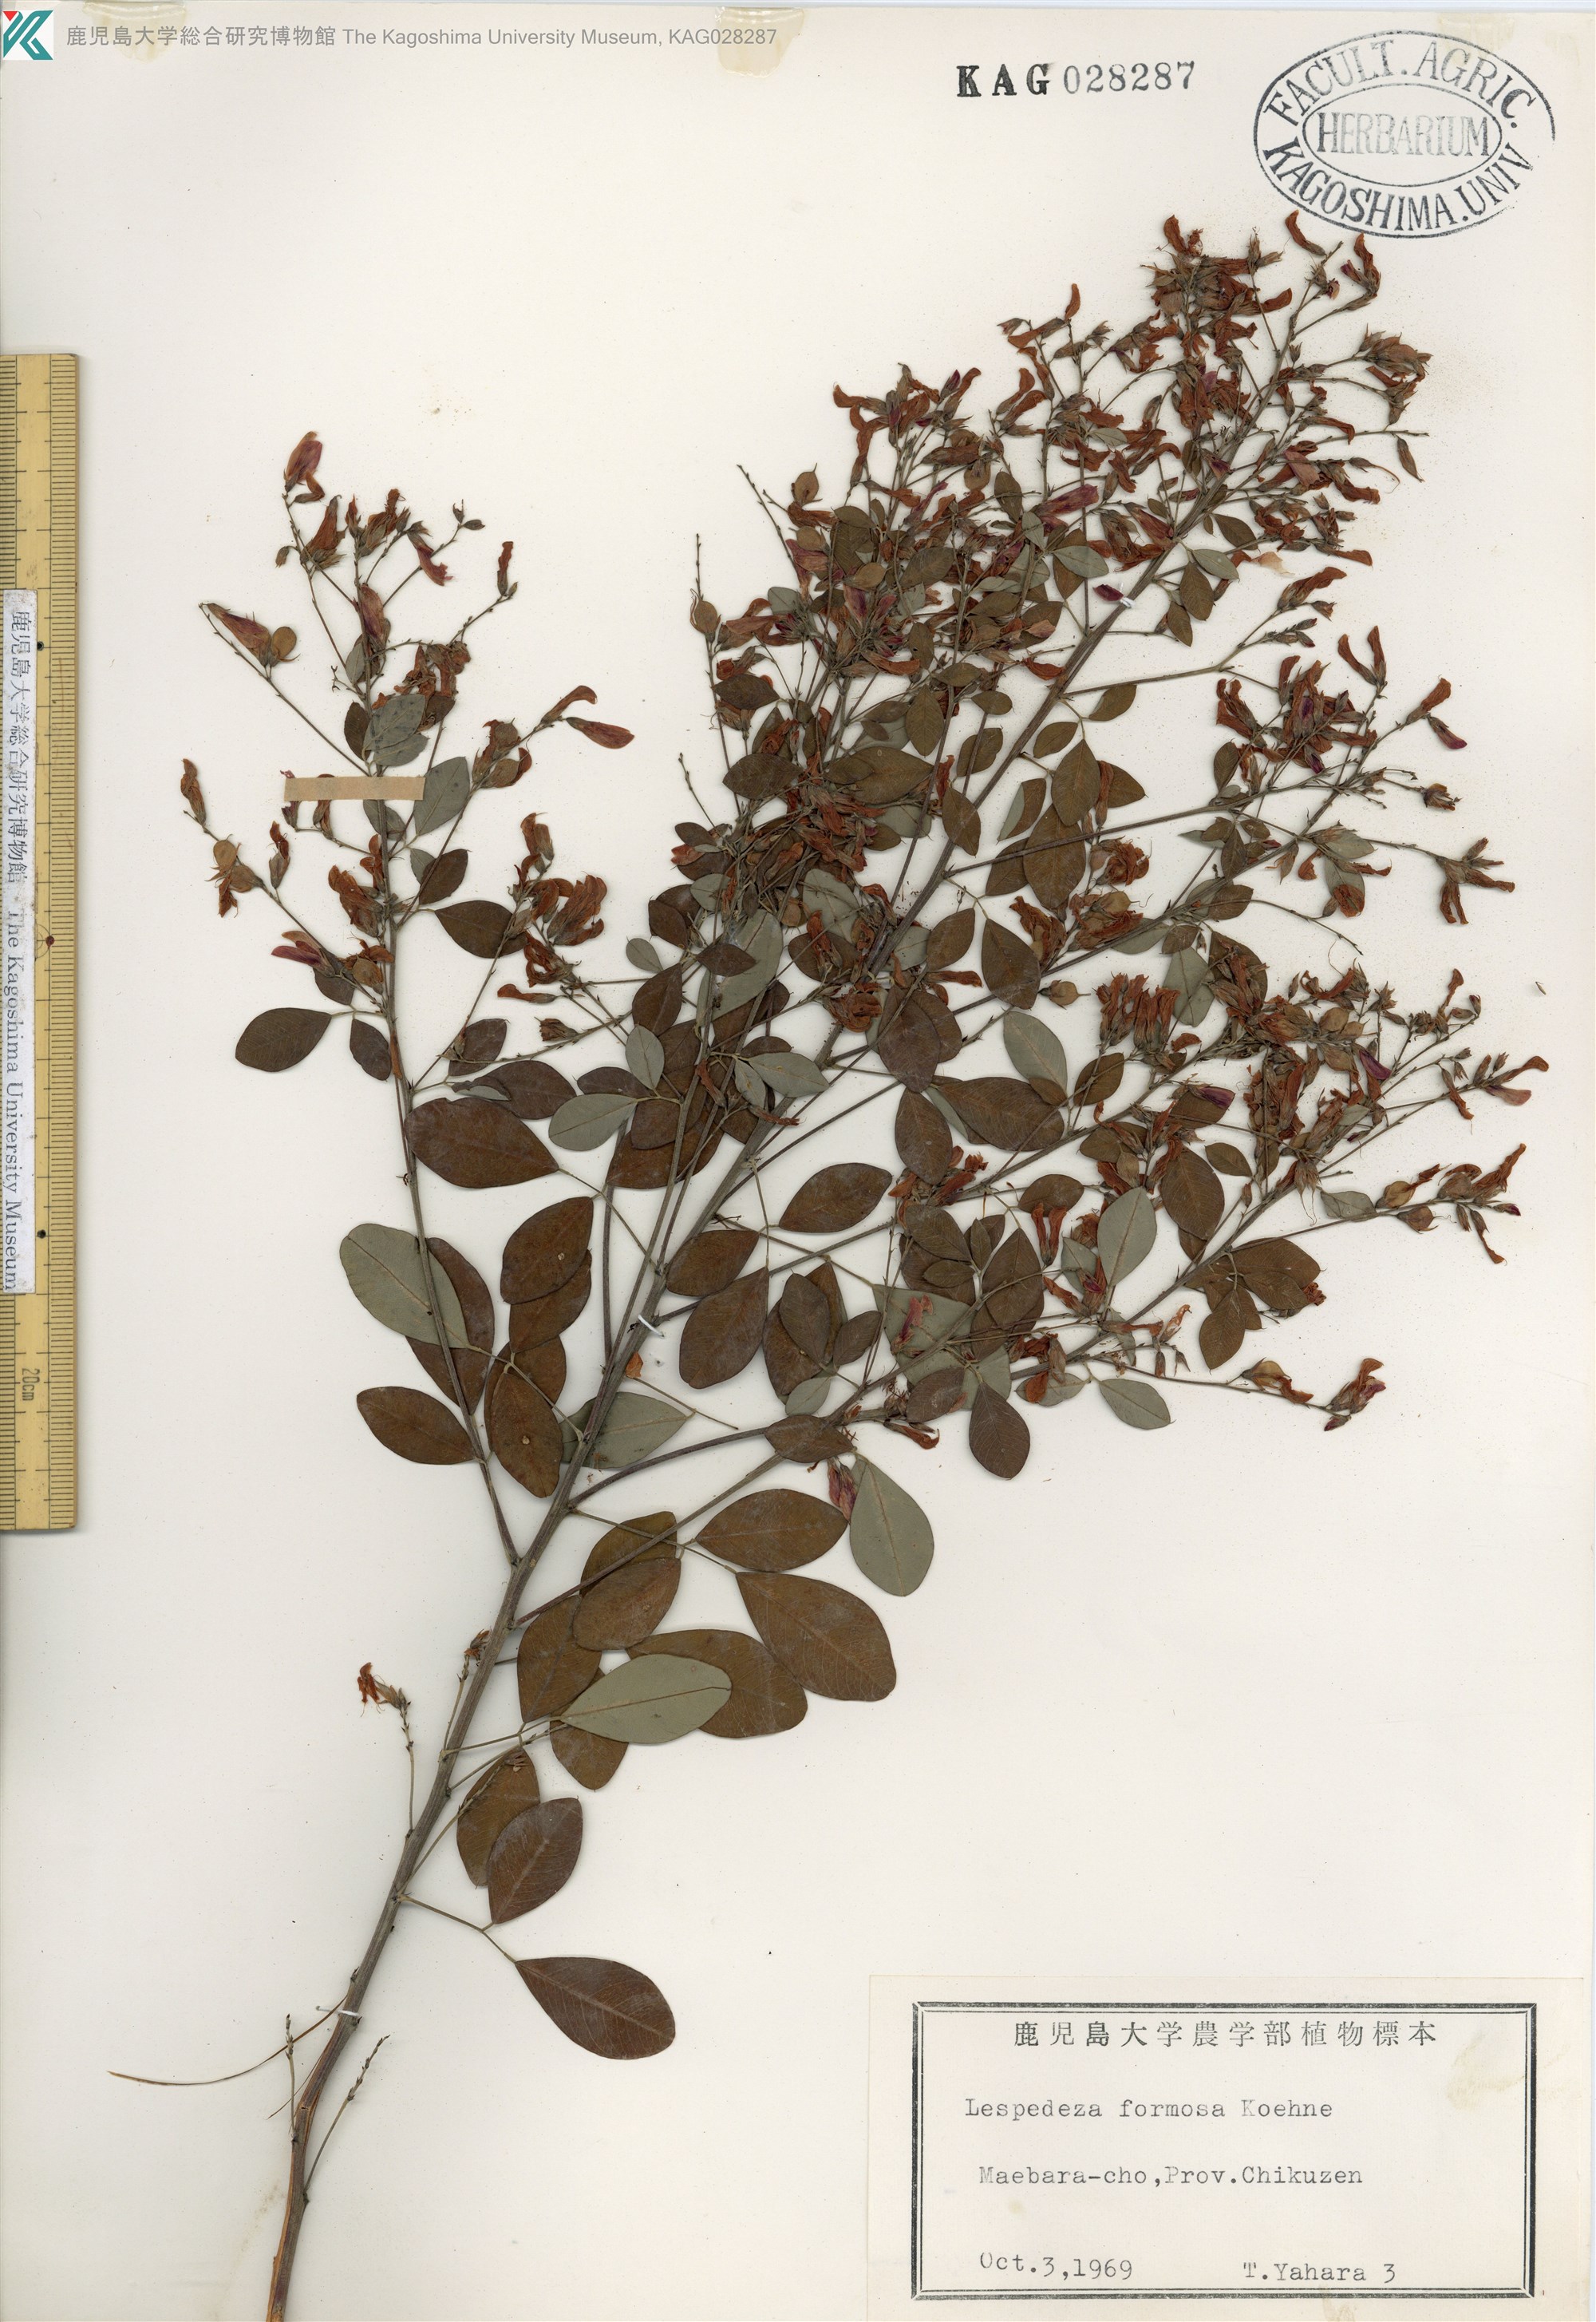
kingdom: Plantae
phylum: Tracheophyta
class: Magnoliopsida
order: Fabales
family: Fabaceae
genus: Lespedeza
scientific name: Lespedeza thunbergii
